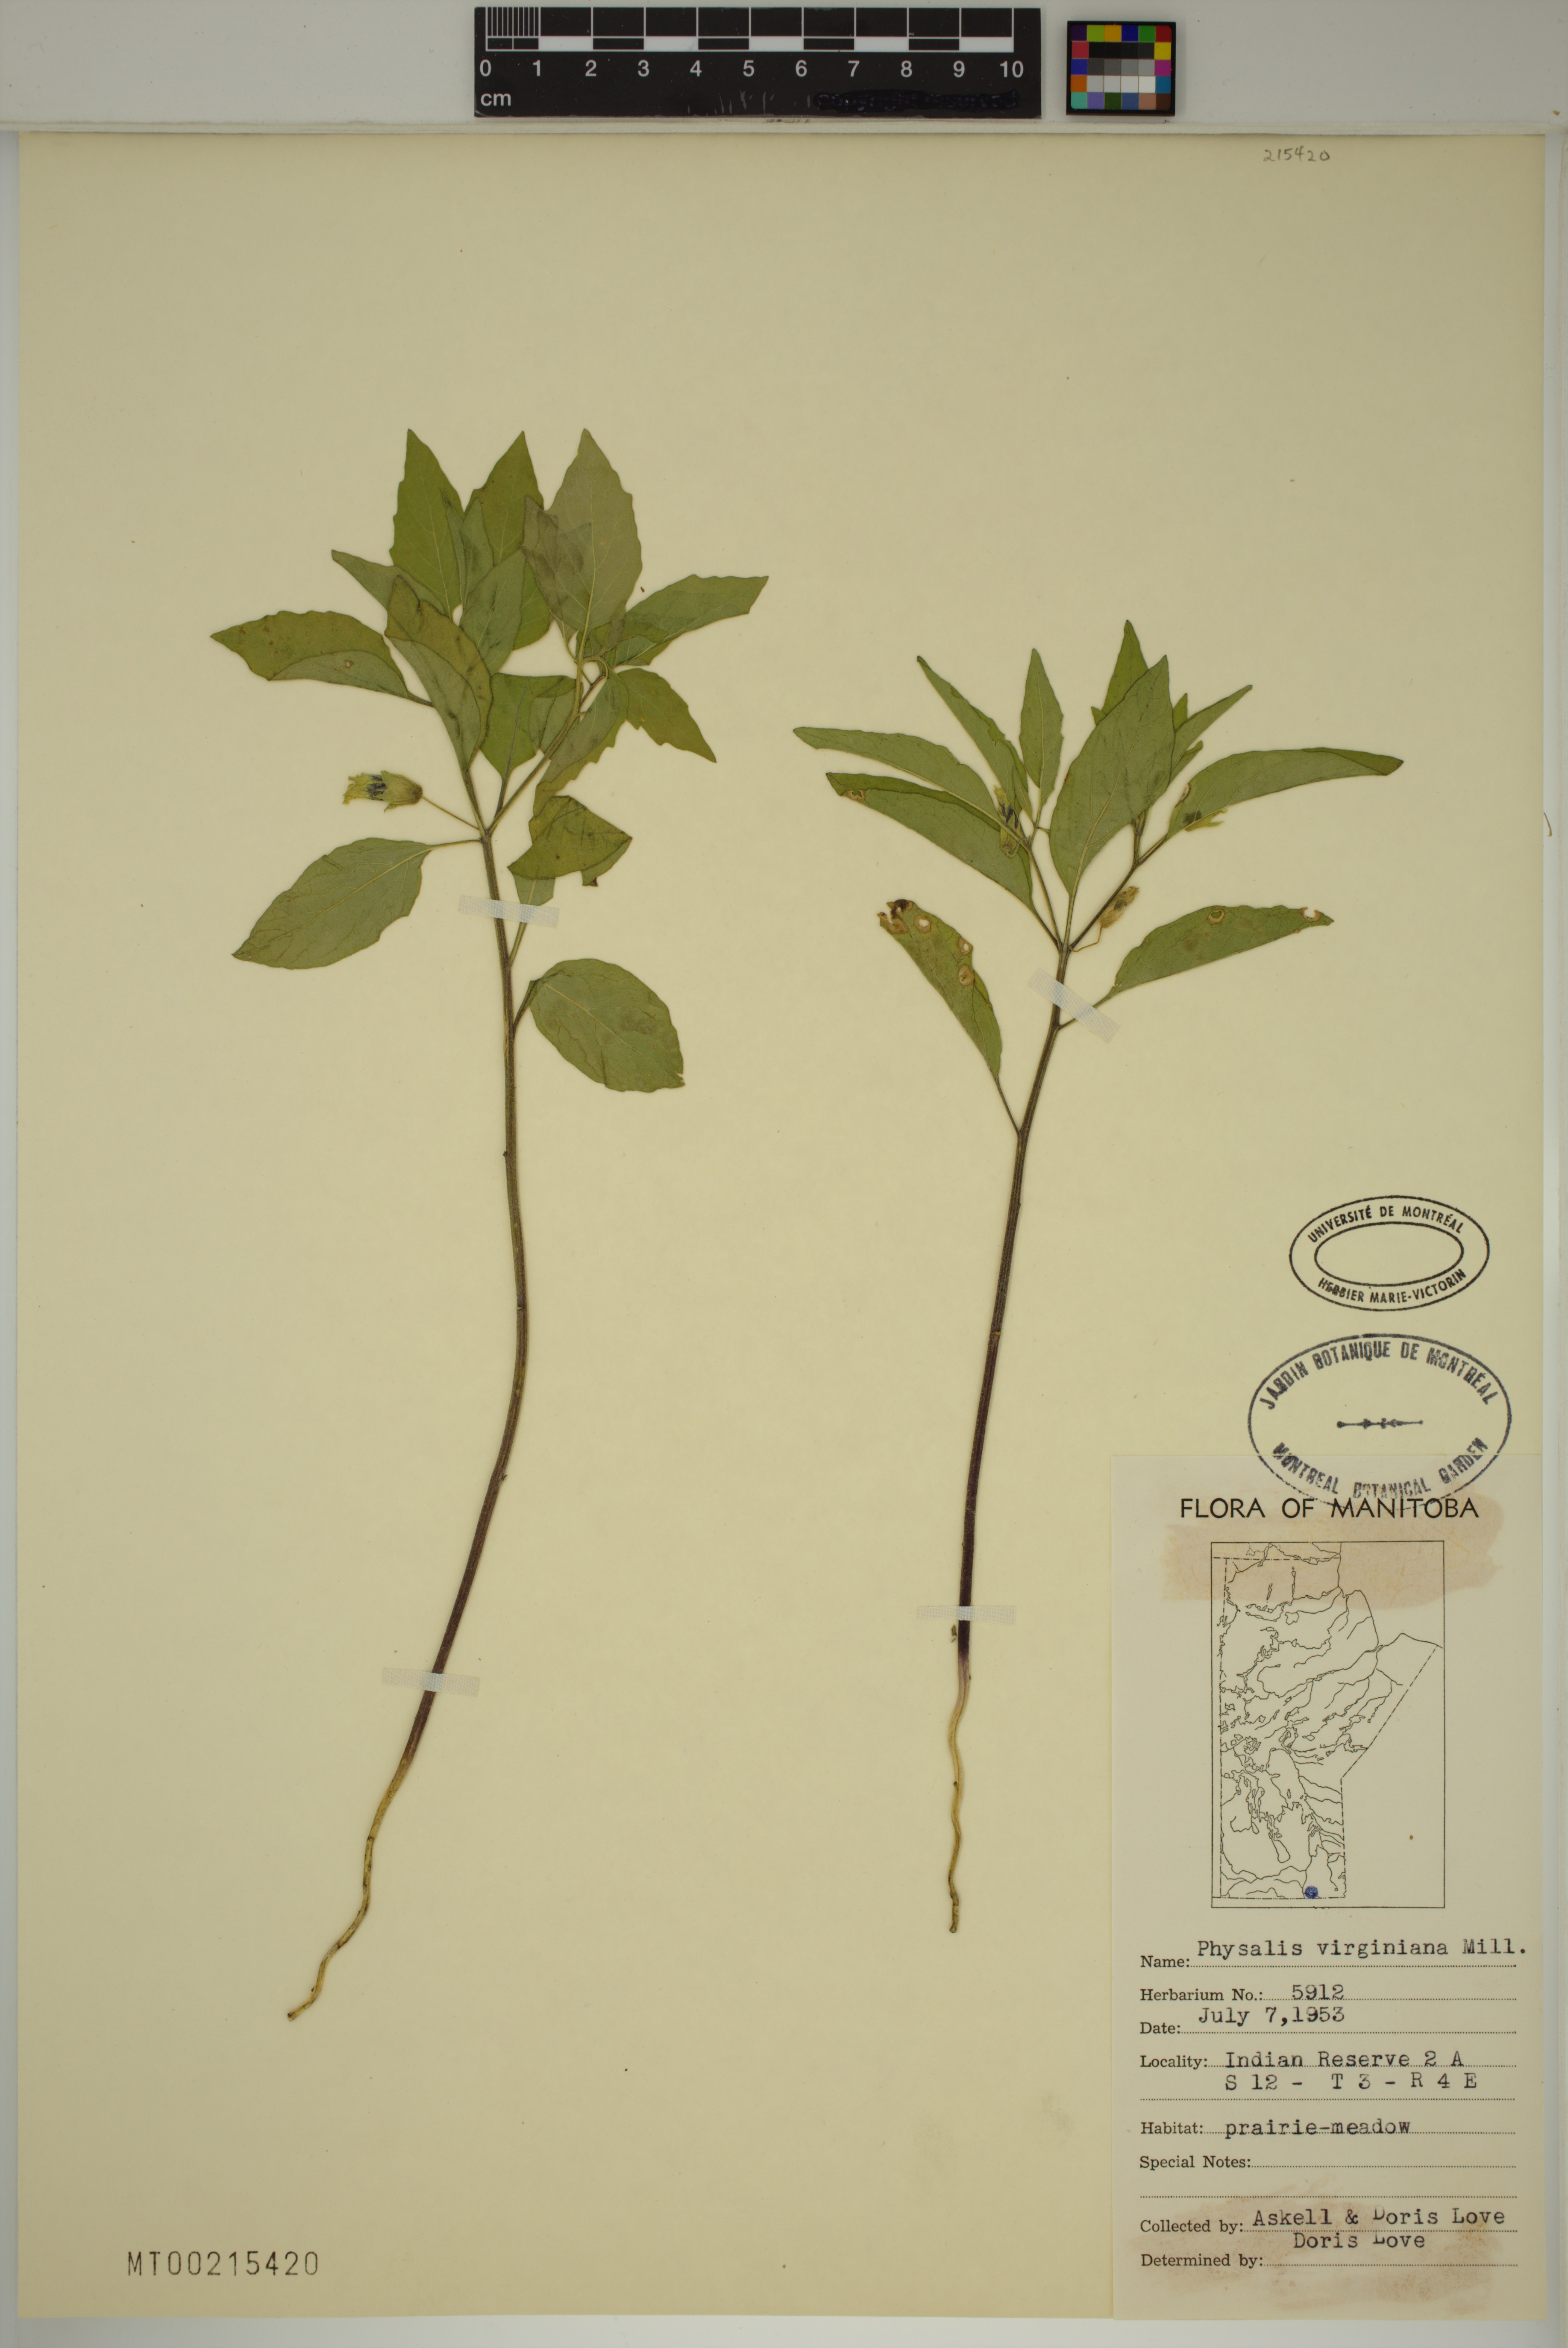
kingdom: Plantae
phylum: Tracheophyta
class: Magnoliopsida
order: Solanales
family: Solanaceae
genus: Physalis
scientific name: Physalis virginiana
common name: Virginia ground-cherry
